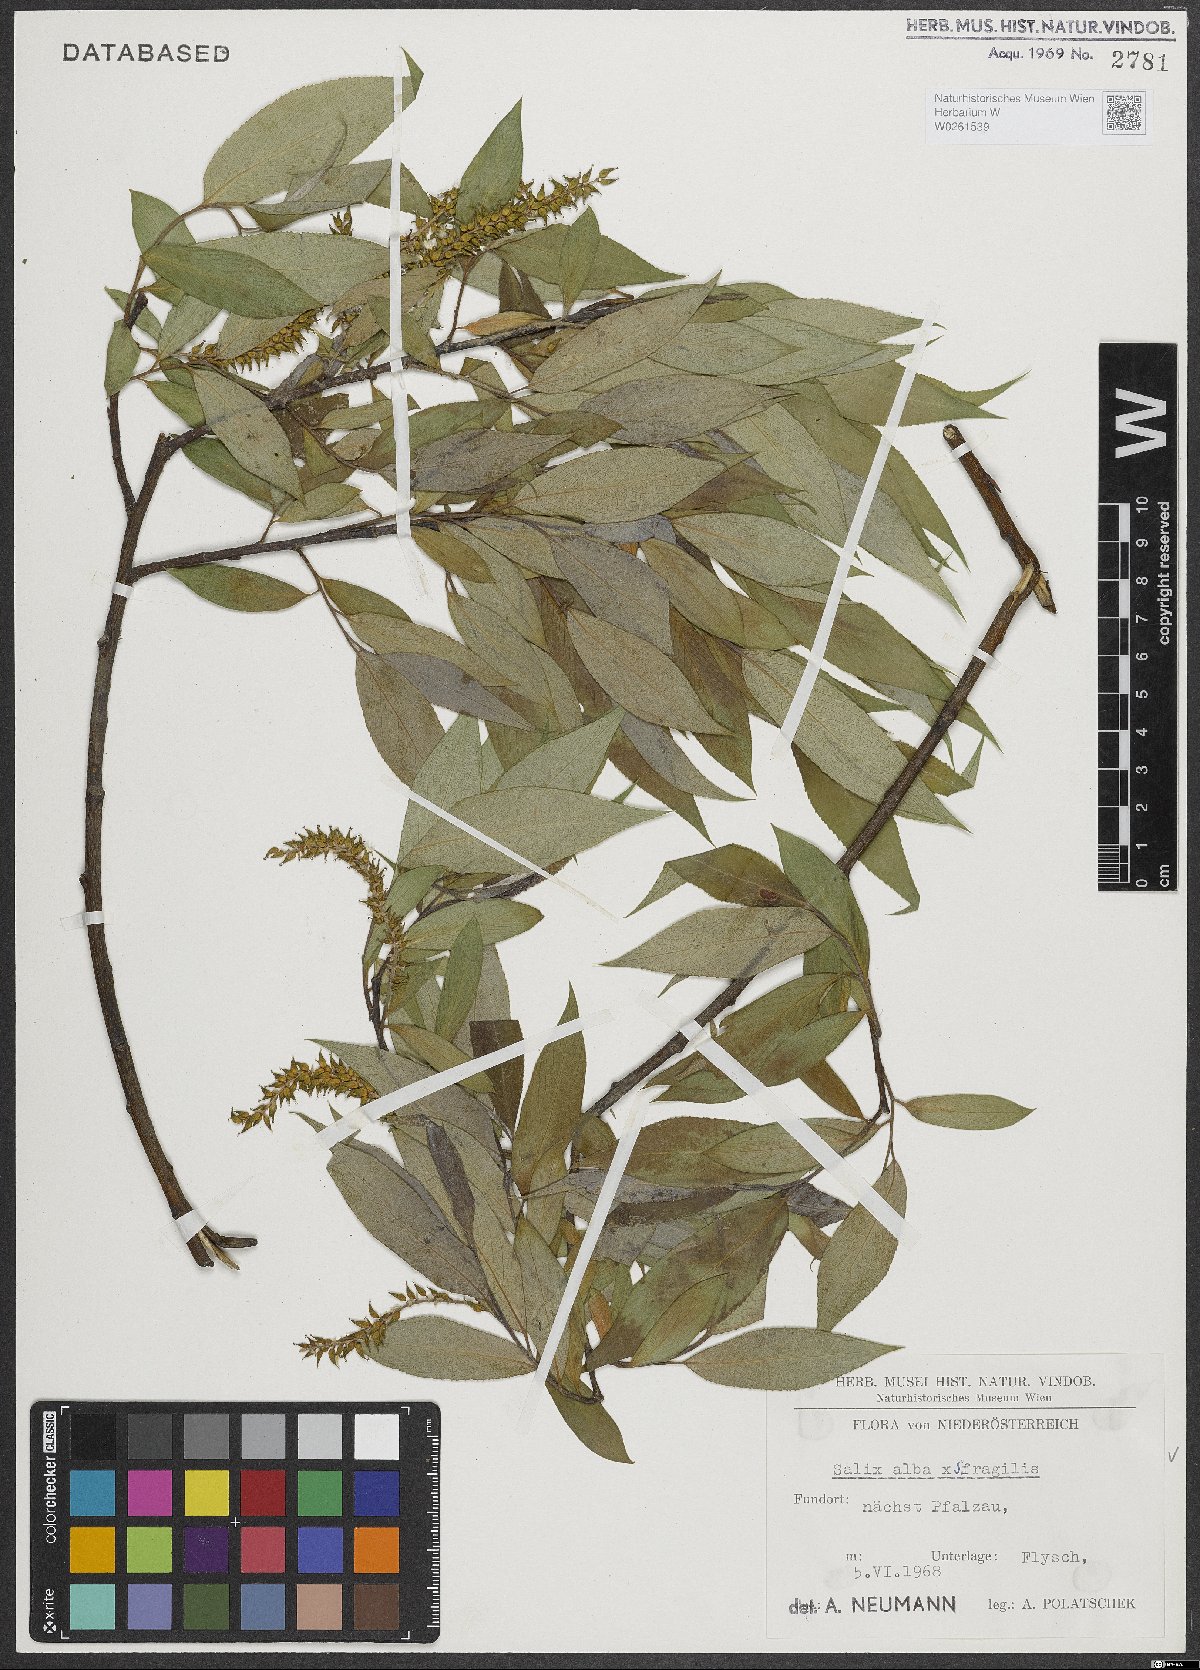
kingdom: Plantae
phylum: Tracheophyta
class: Magnoliopsida
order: Malpighiales
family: Salicaceae
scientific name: Salicaceae
